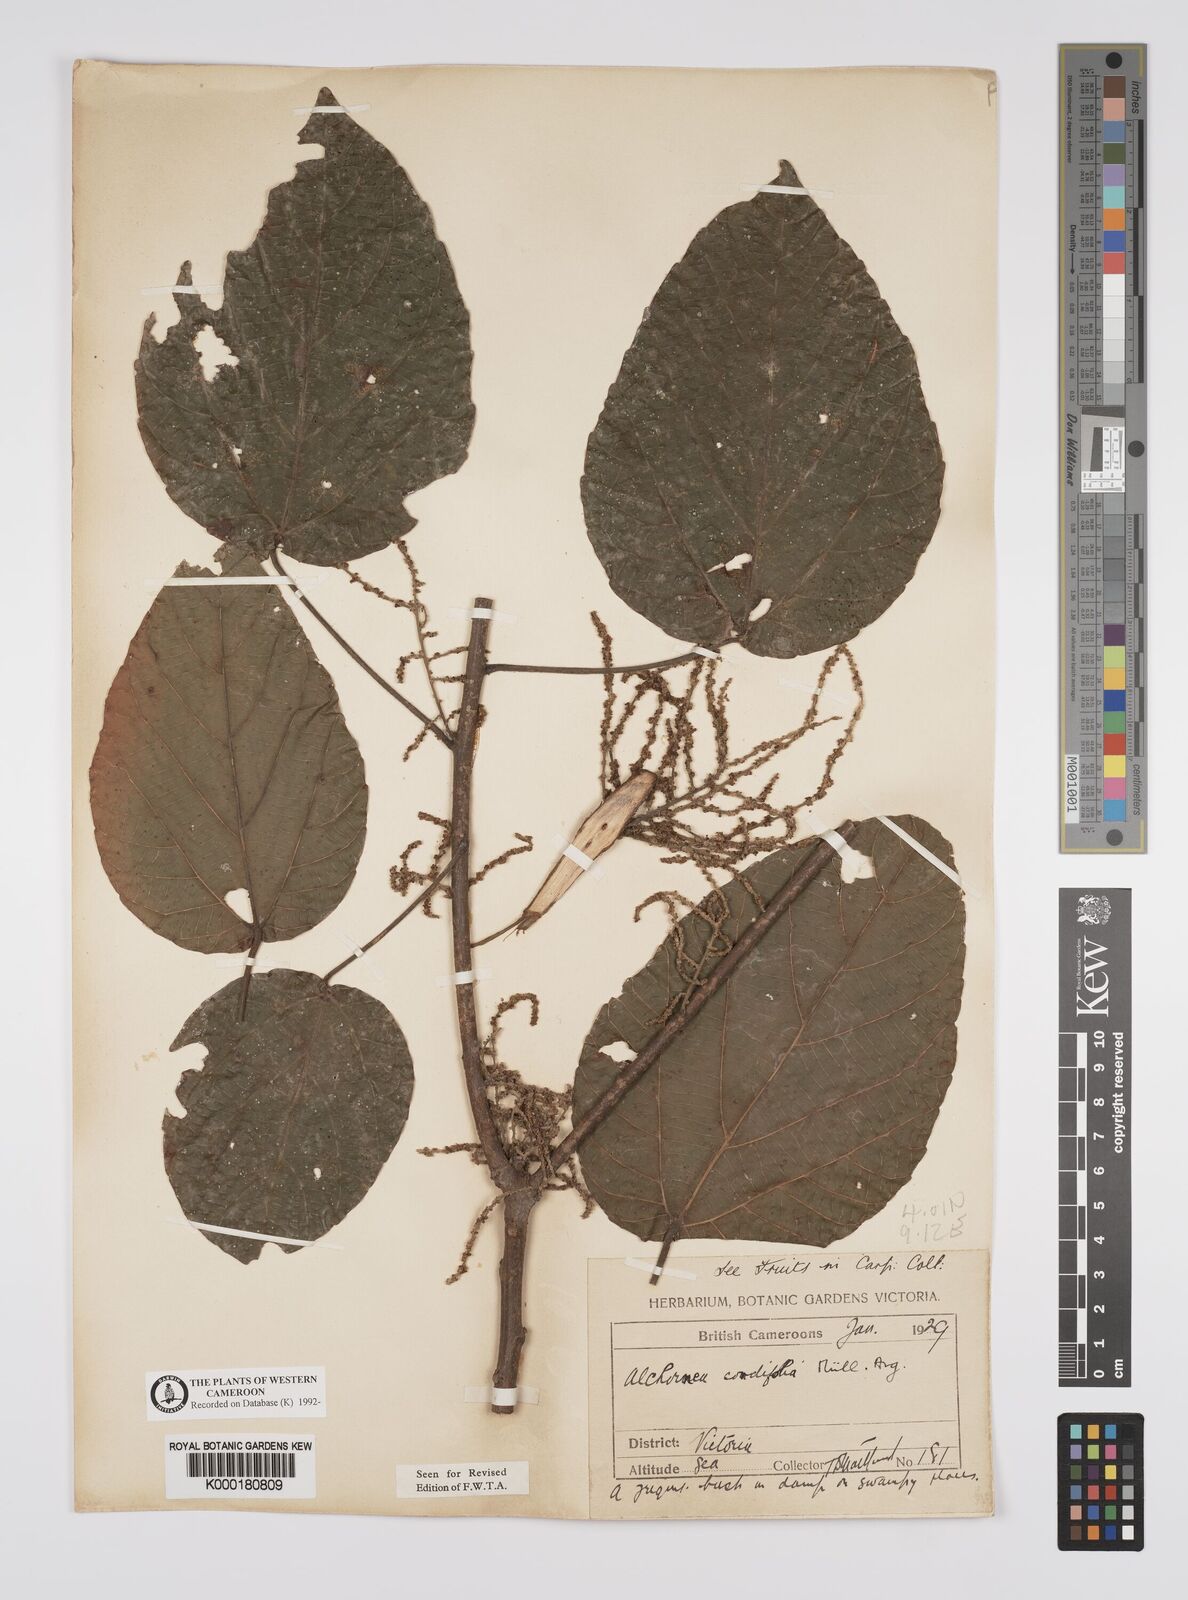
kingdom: Plantae
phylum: Tracheophyta
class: Magnoliopsida
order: Malpighiales
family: Euphorbiaceae
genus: Alchornea
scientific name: Alchornea
